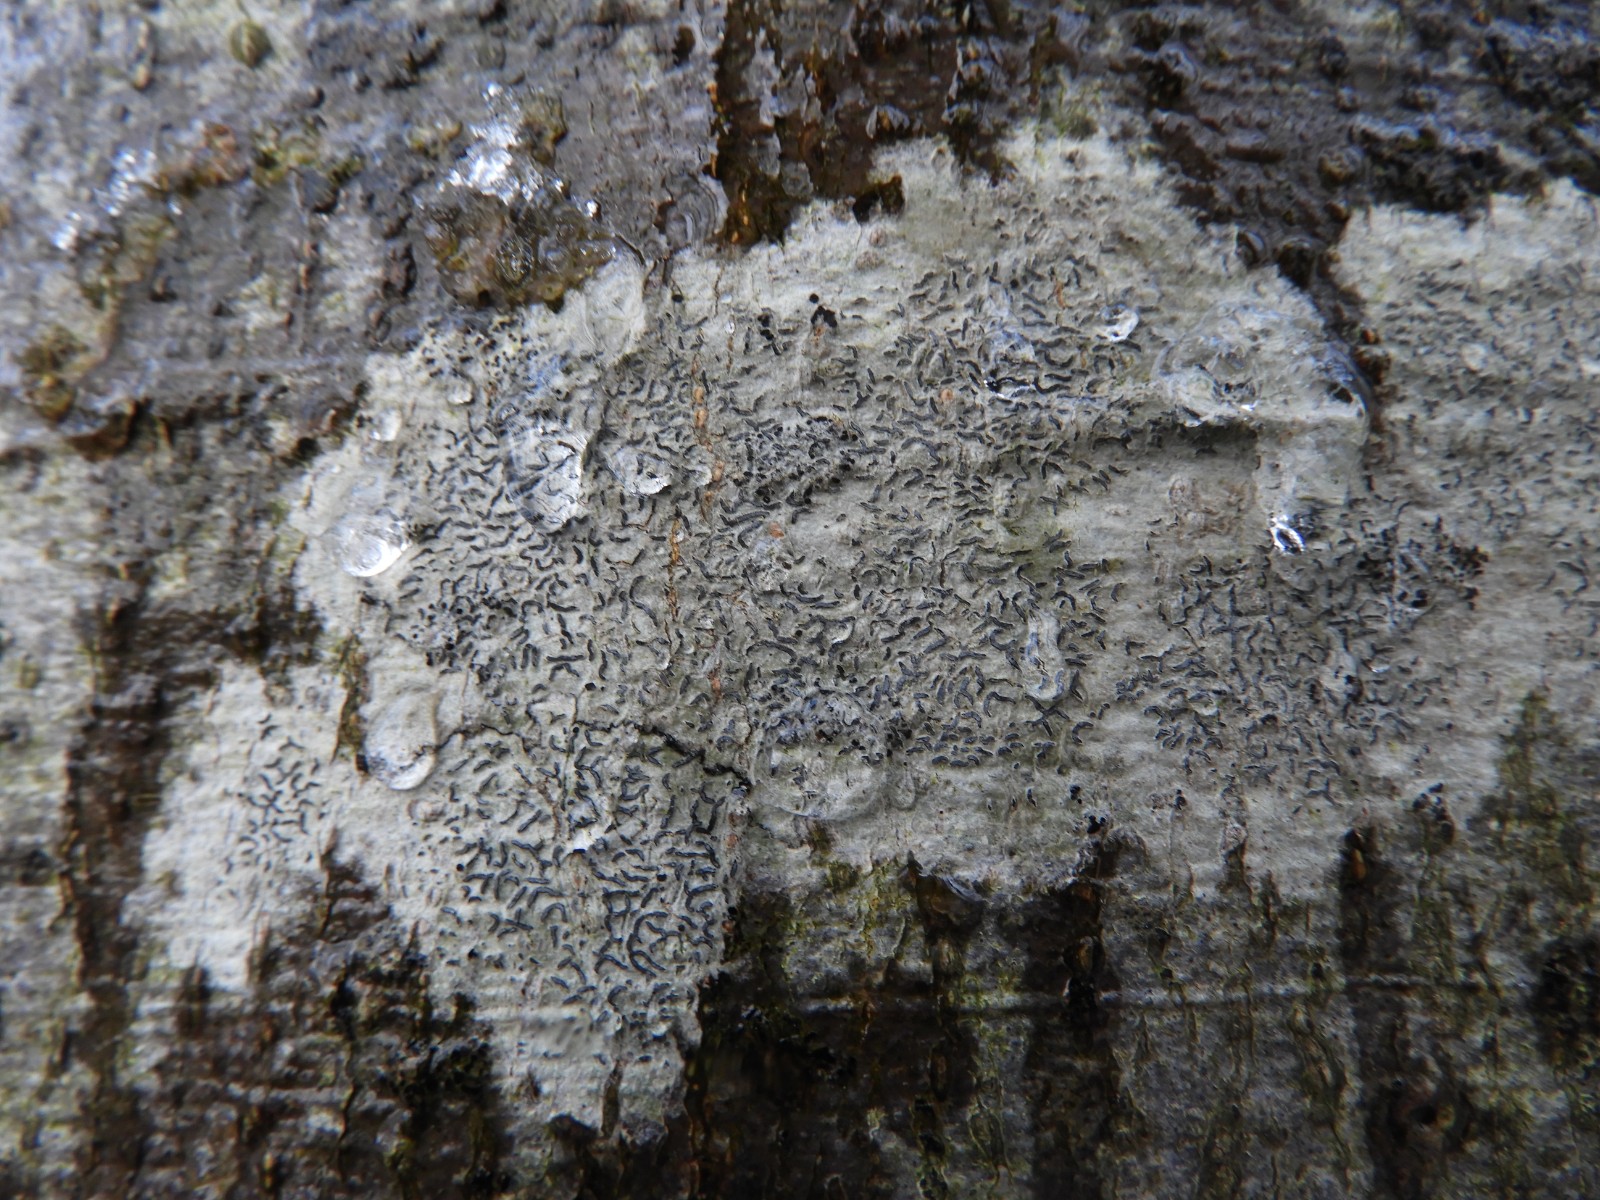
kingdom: Fungi
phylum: Ascomycota
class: Lecanoromycetes
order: Ostropales
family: Graphidaceae
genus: Graphis
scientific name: Graphis scripta
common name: almindelig skriftlav
